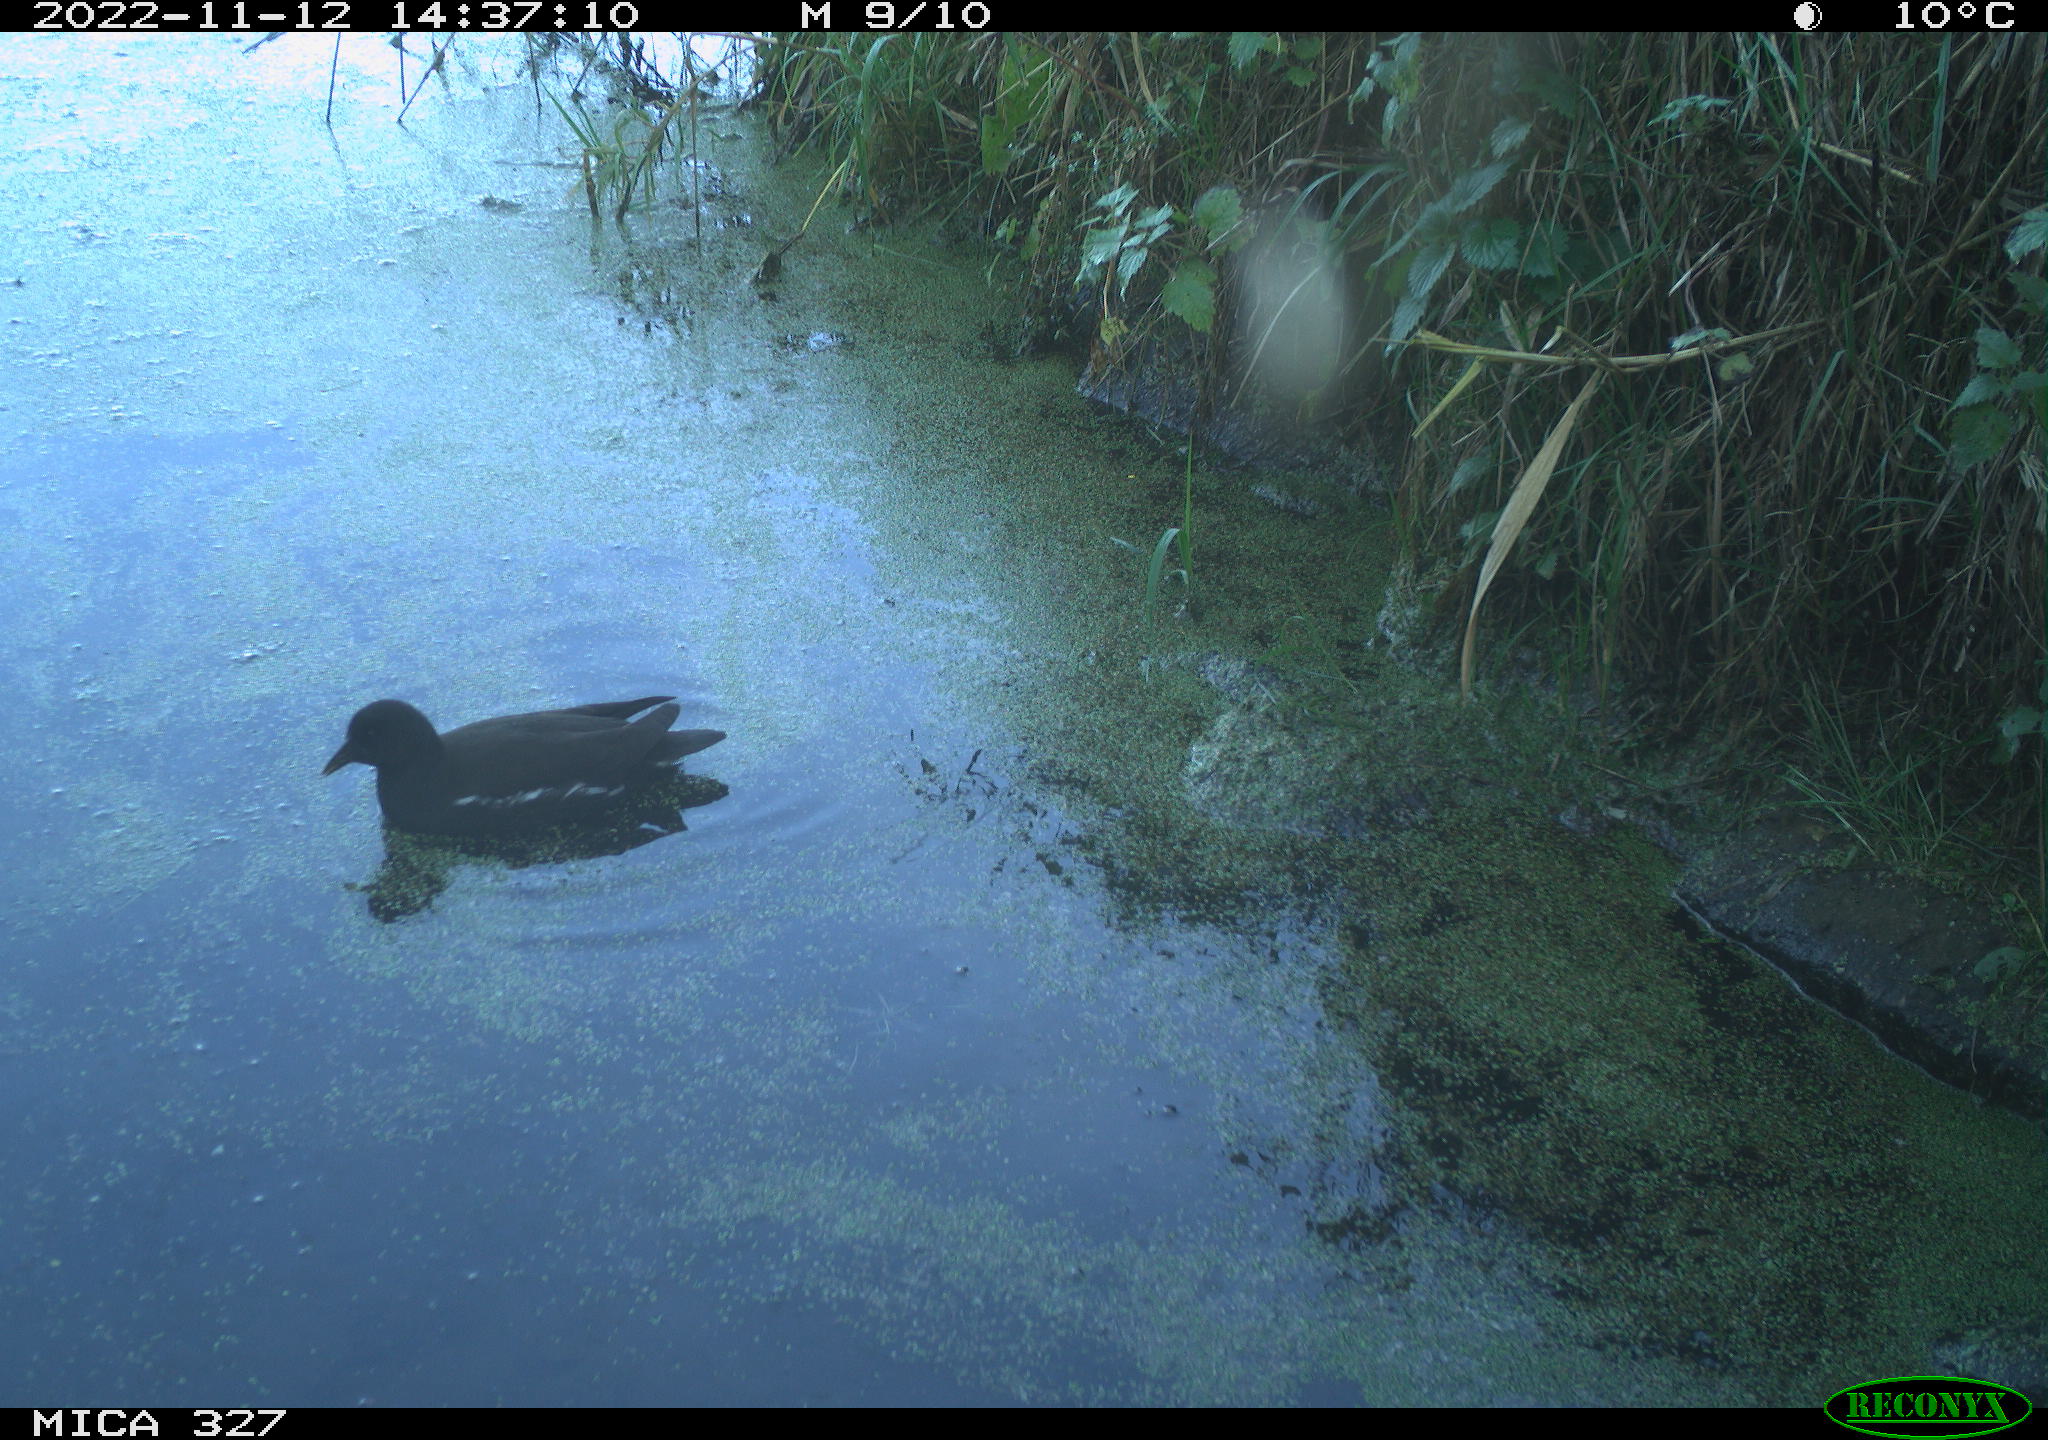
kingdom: Animalia
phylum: Chordata
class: Aves
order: Gruiformes
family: Rallidae
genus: Gallinula
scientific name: Gallinula chloropus
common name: Common moorhen
